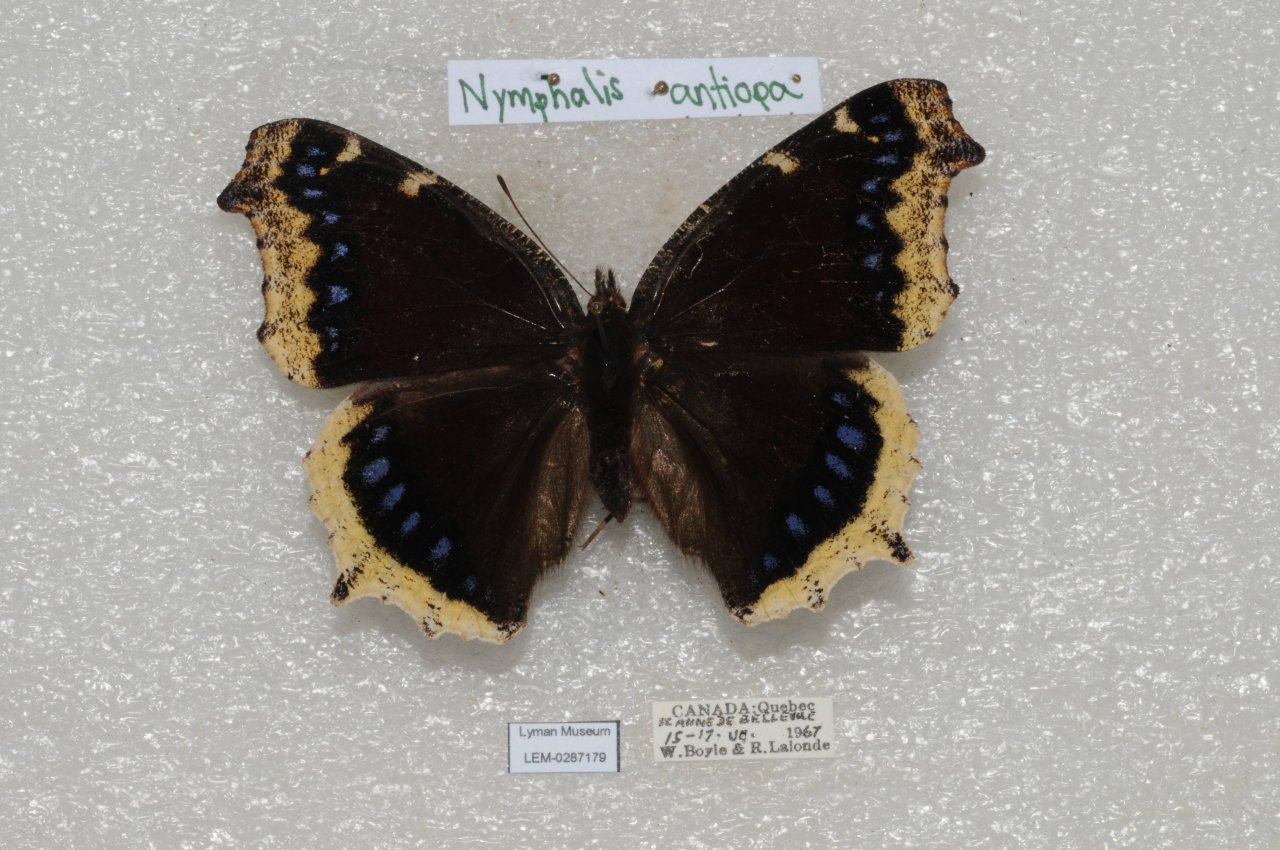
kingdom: Animalia
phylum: Arthropoda
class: Insecta
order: Lepidoptera
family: Nymphalidae
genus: Nymphalis
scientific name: Nymphalis antiopa
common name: Mourning Cloak
